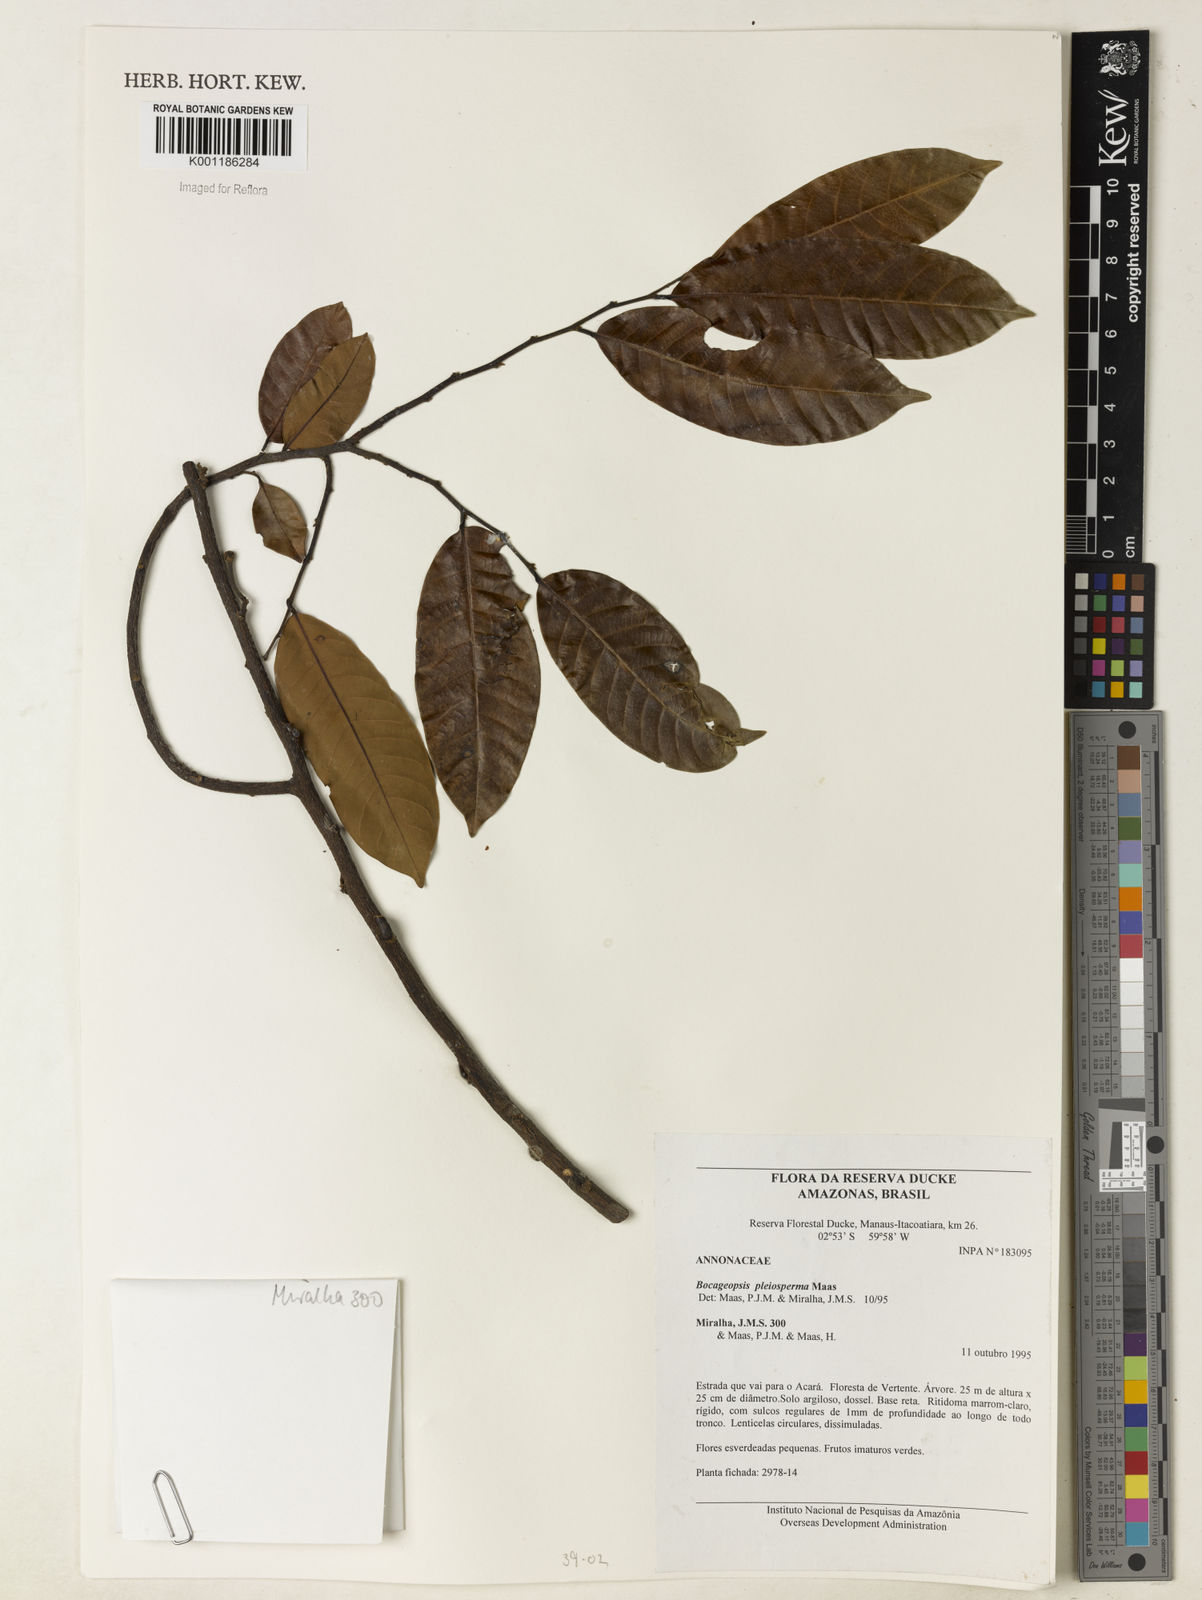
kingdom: Plantae
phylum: Tracheophyta
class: Magnoliopsida
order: Magnoliales
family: Annonaceae
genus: Bocageopsis
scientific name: Bocageopsis pleiosperma
